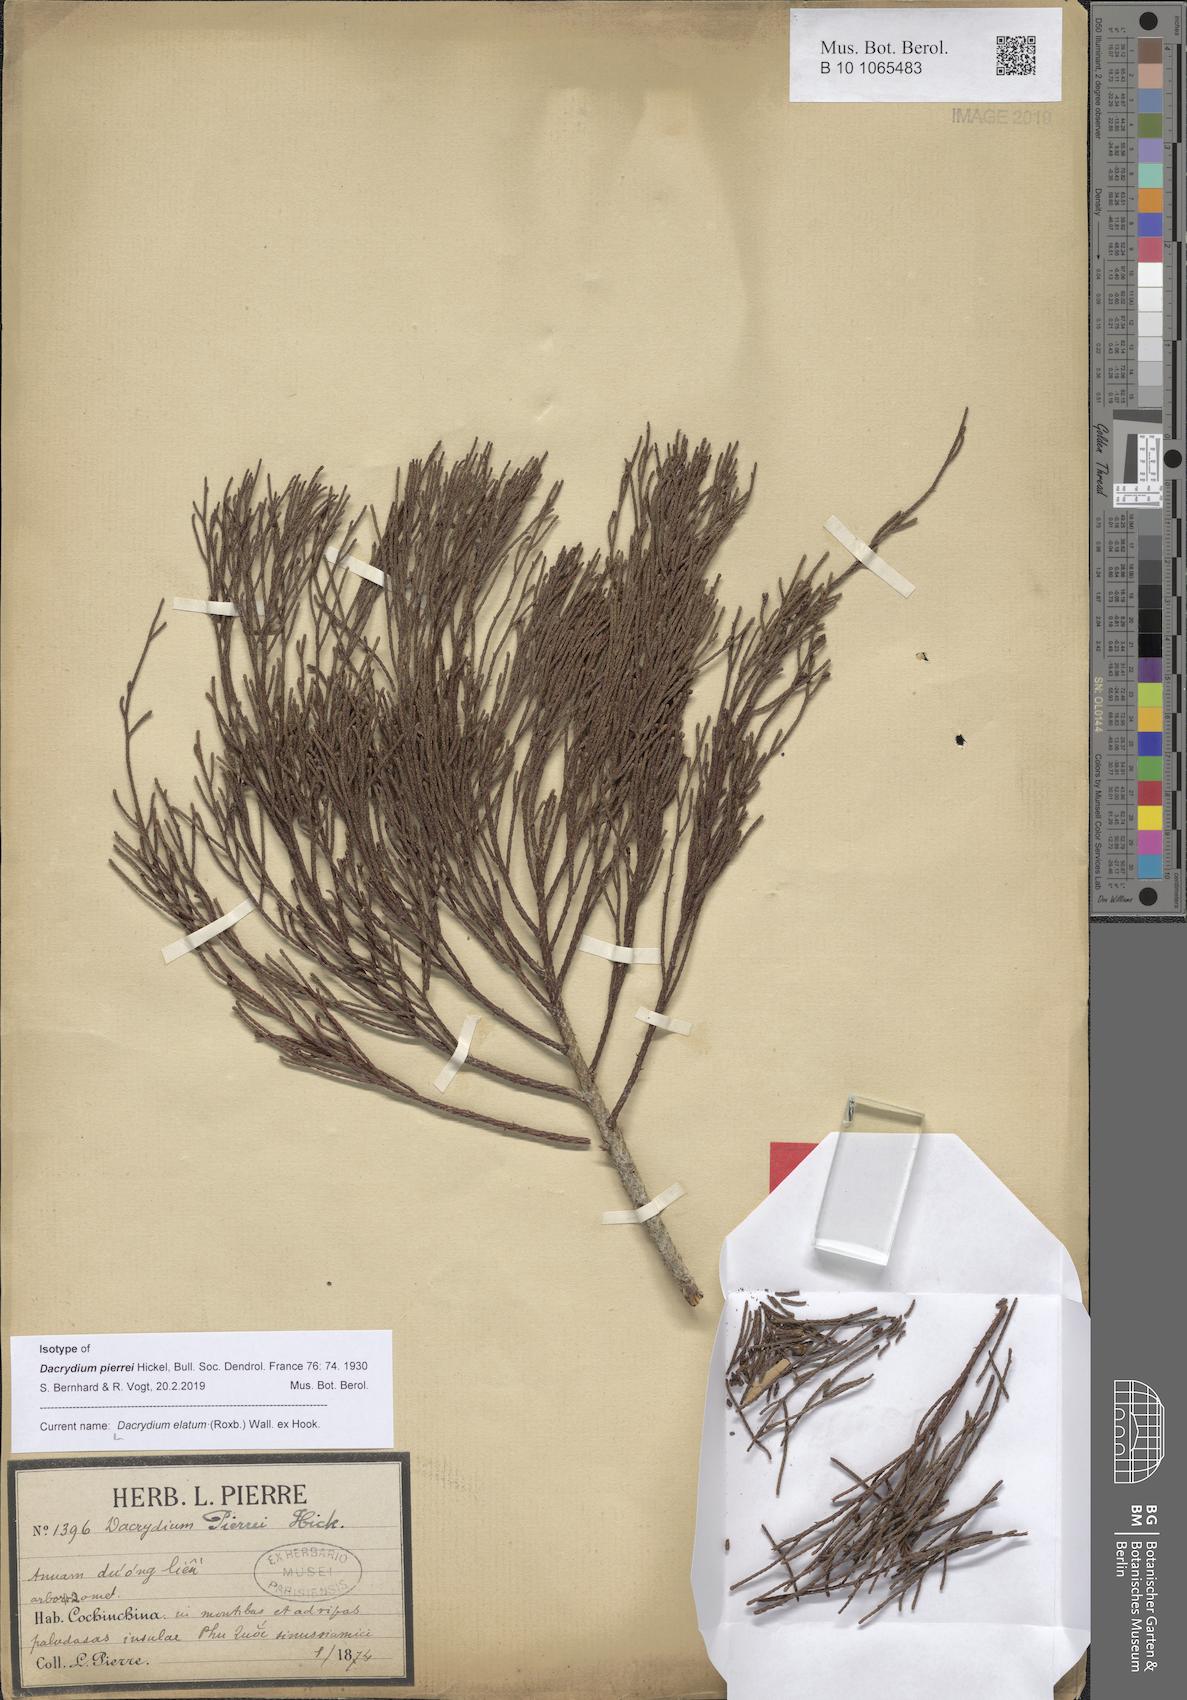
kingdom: Plantae
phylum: Tracheophyta
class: Pinopsida
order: Pinales
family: Podocarpaceae
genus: Dacrydium
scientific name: Dacrydium elatum
